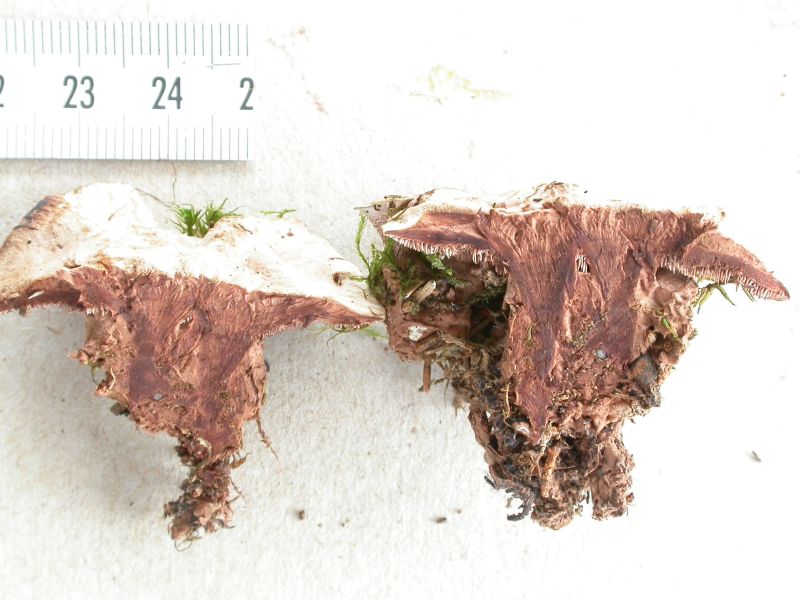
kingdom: Fungi
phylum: Basidiomycota
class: Agaricomycetes
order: Thelephorales
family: Bankeraceae
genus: Hydnellum
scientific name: Hydnellum cumulatum
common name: Rosette tooth
